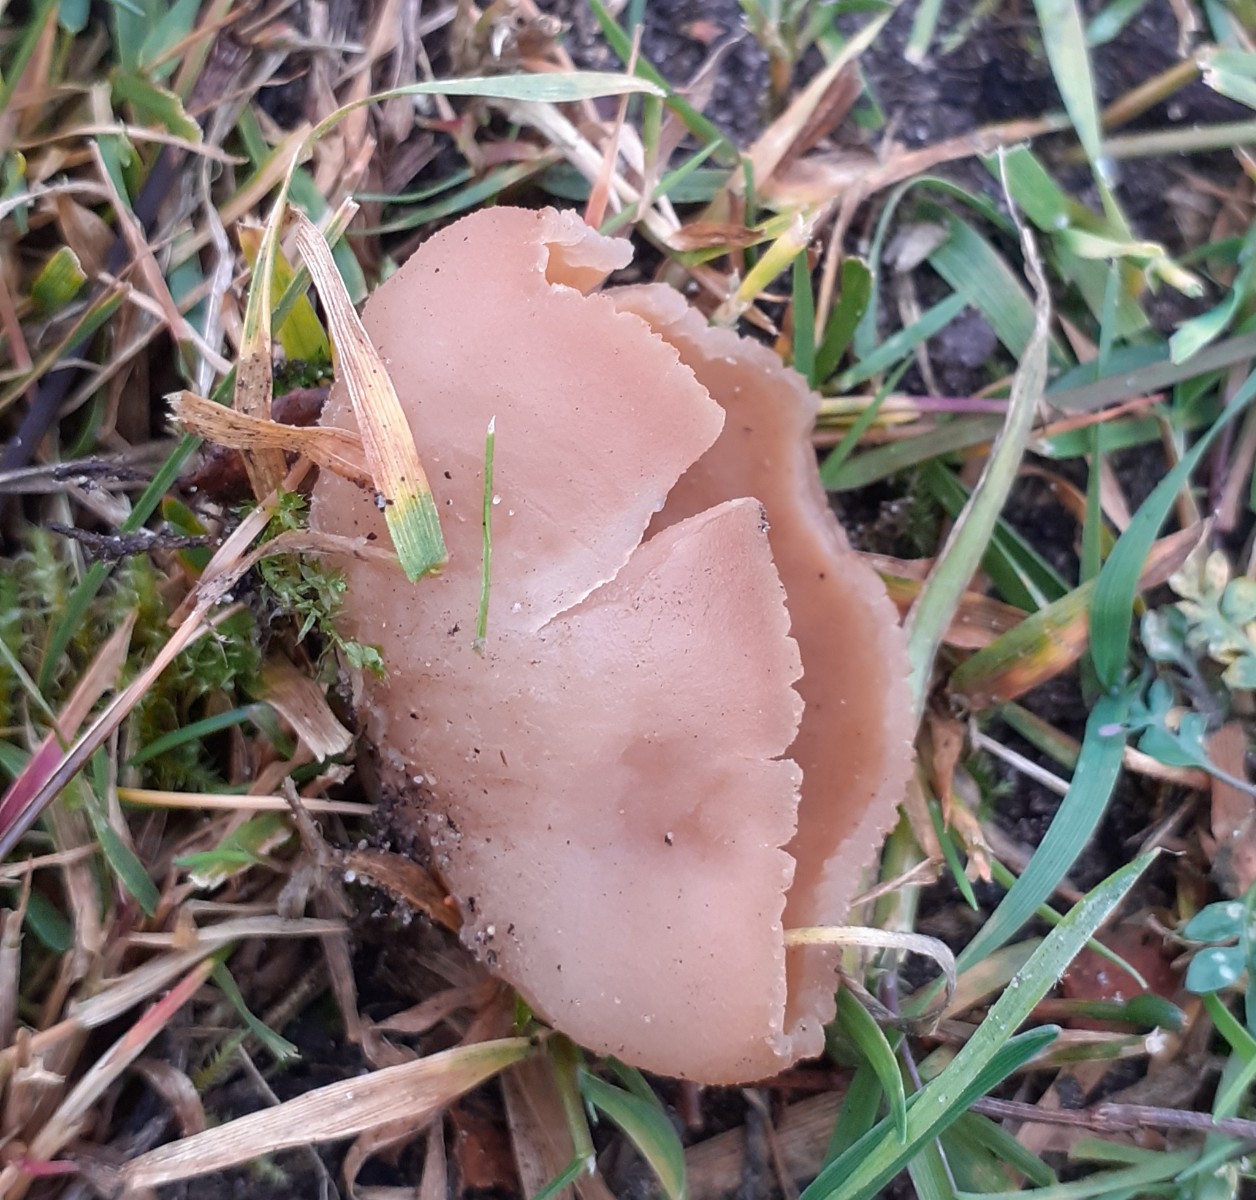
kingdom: Fungi
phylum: Ascomycota
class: Pezizomycetes
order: Pezizales
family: Pezizaceae
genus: Peziza
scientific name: Peziza
